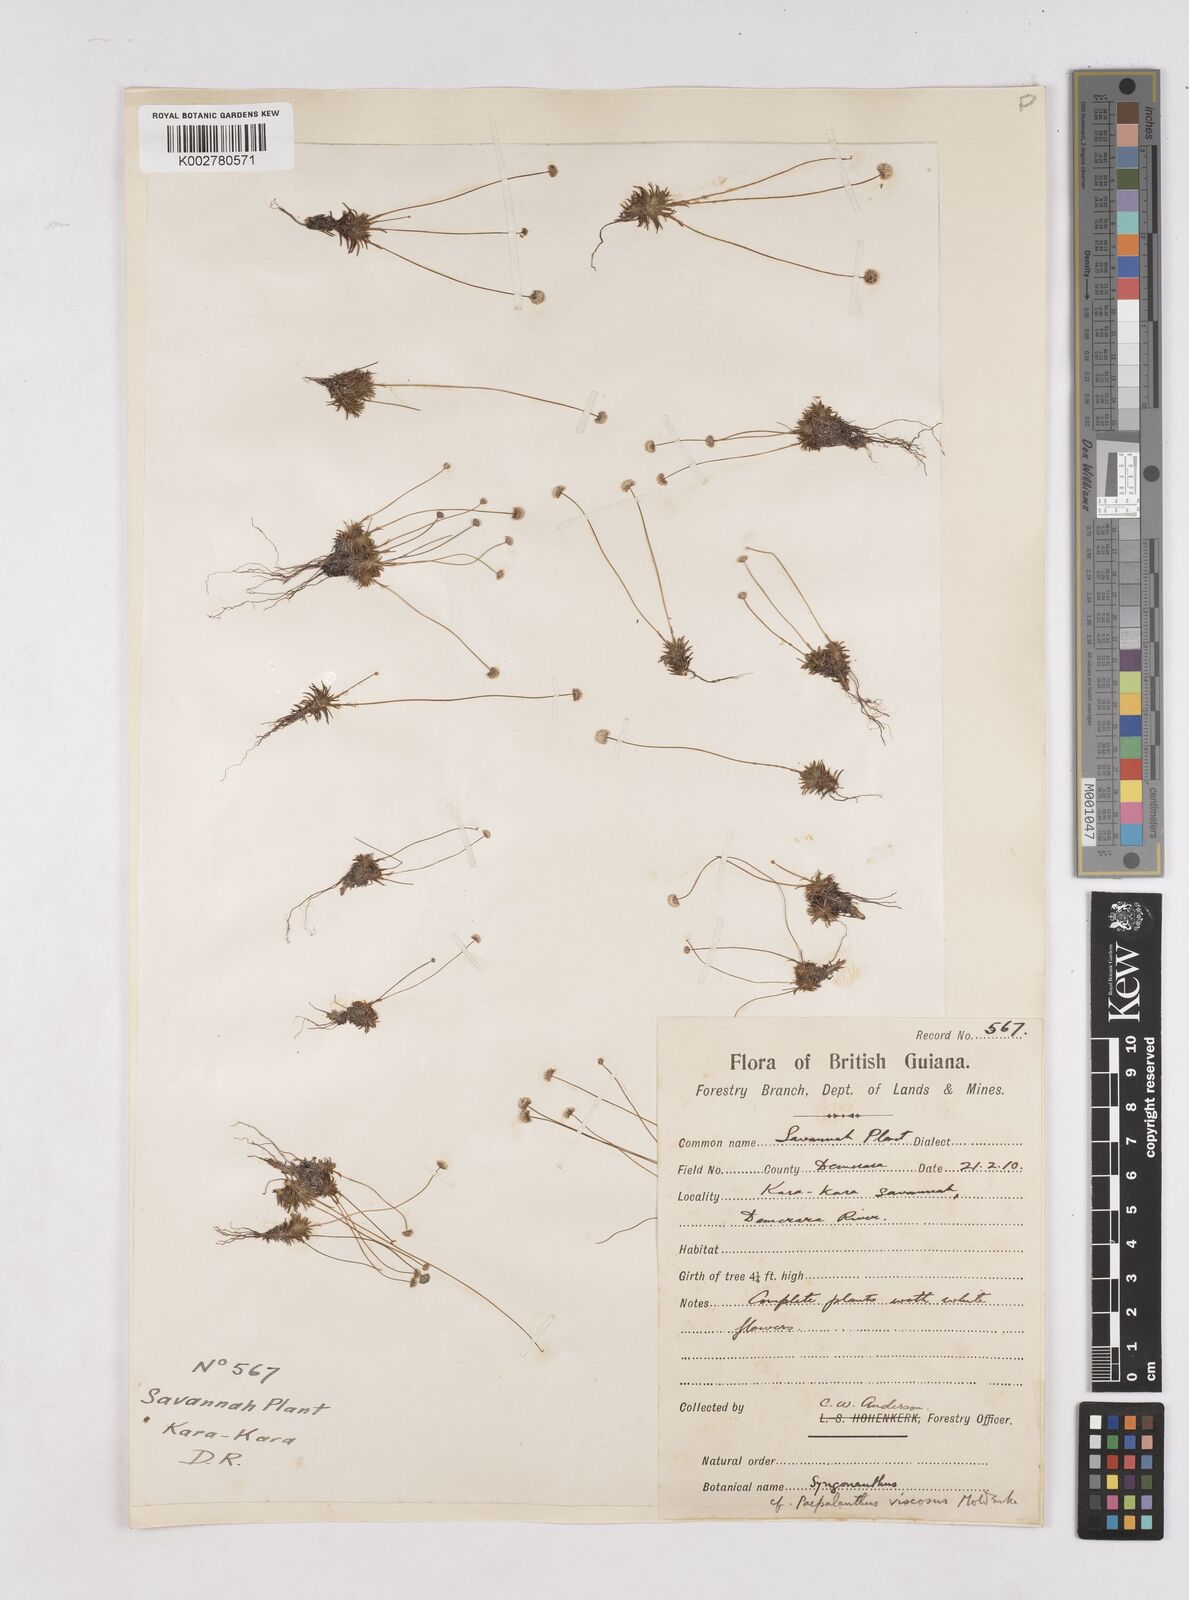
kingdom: Plantae
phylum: Tracheophyta
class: Liliopsida
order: Poales
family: Eriocaulaceae
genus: Paepalanthus
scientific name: Paepalanthus polytrichoides
